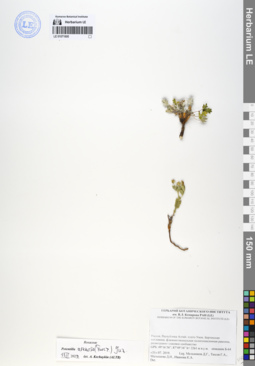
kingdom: Plantae
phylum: Tracheophyta
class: Magnoliopsida
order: Rosales
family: Rosaceae
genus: Potentilla
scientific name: Potentilla arenosa
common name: Bluff cinquefoil
